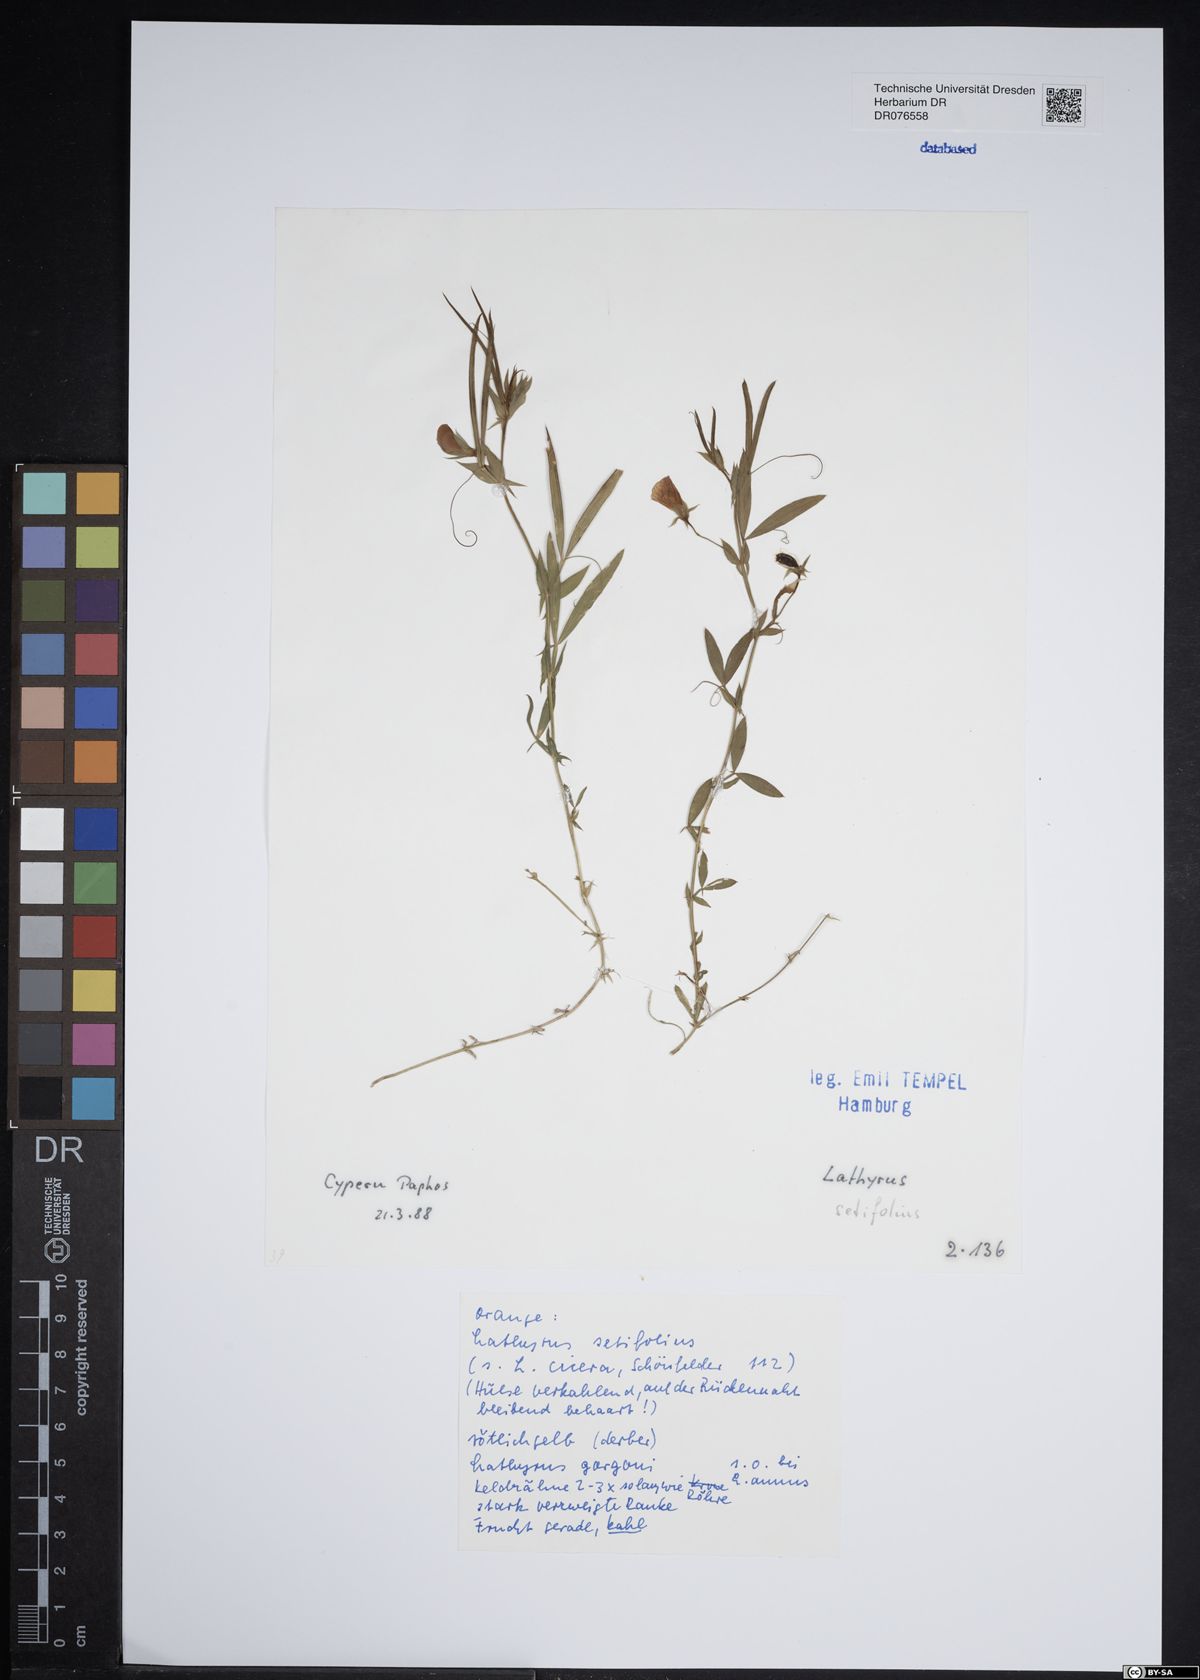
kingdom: Plantae
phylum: Tracheophyta
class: Magnoliopsida
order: Fabales
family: Fabaceae
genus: Lathyrus
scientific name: Lathyrus setifolius
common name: Brown vetchling
